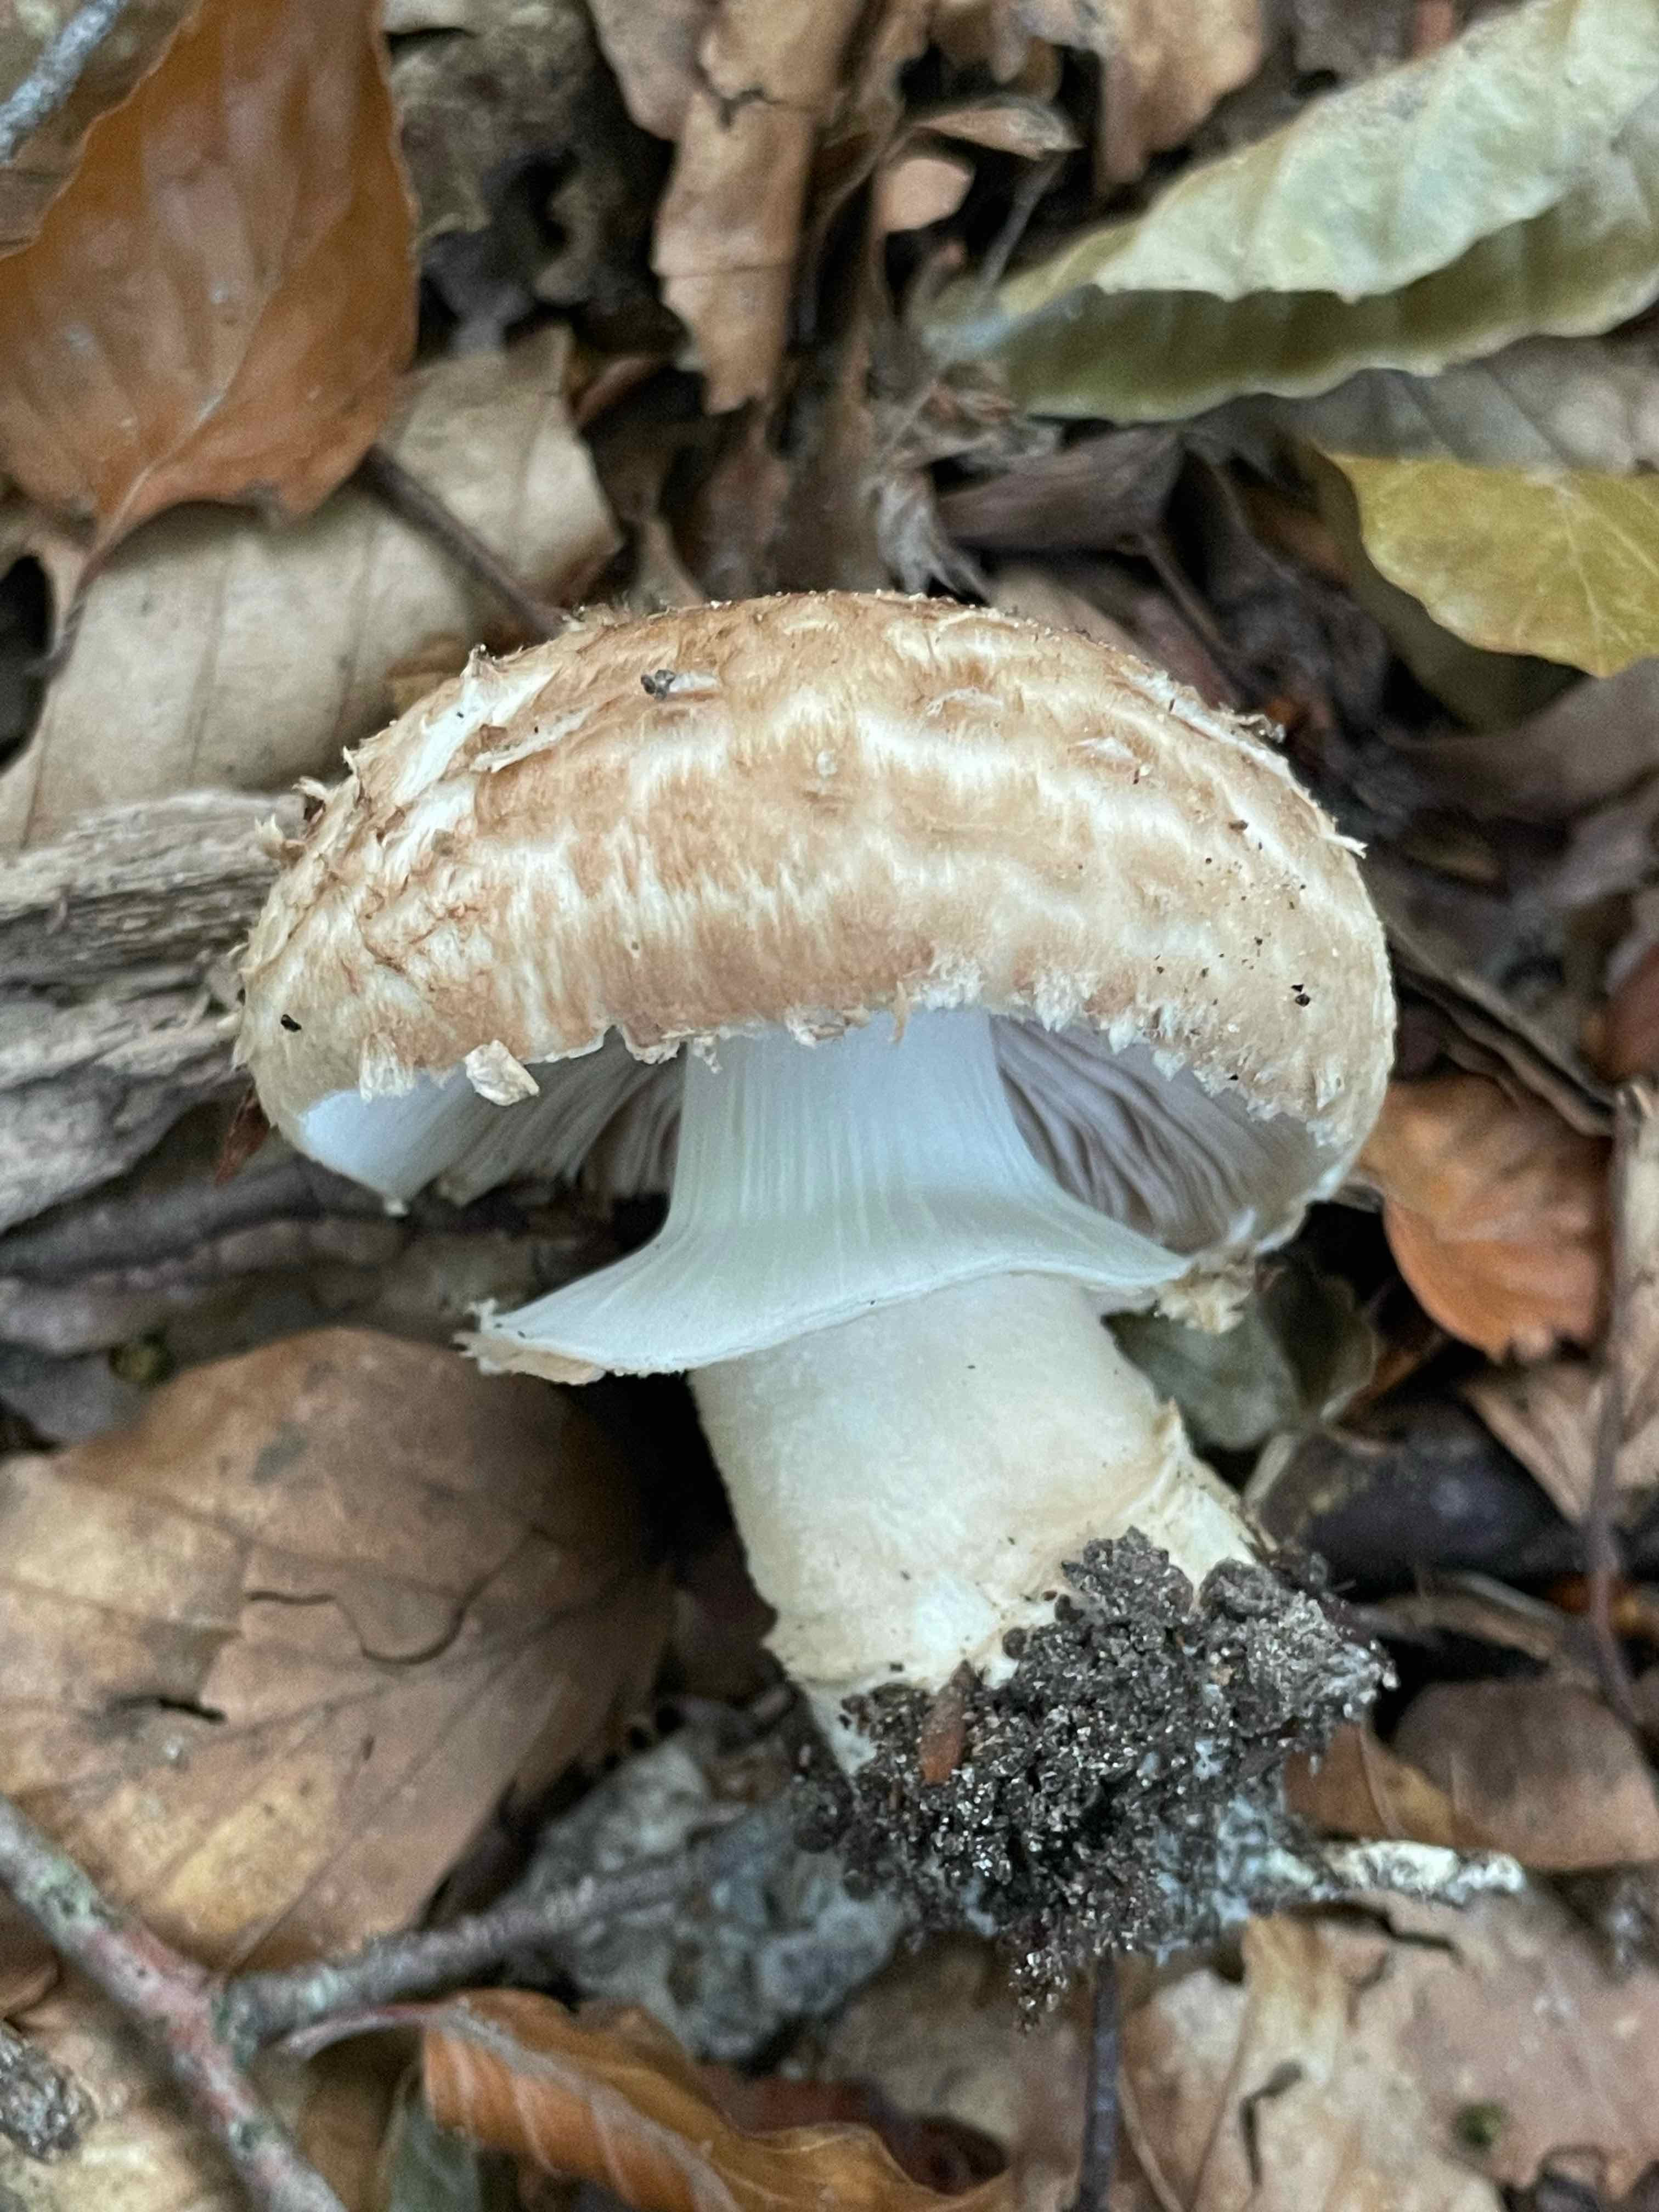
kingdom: Fungi
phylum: Basidiomycota
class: Agaricomycetes
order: Agaricales
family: Agaricaceae
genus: Agaricus
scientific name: Agaricus lanipes
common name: uldstokket champignon
